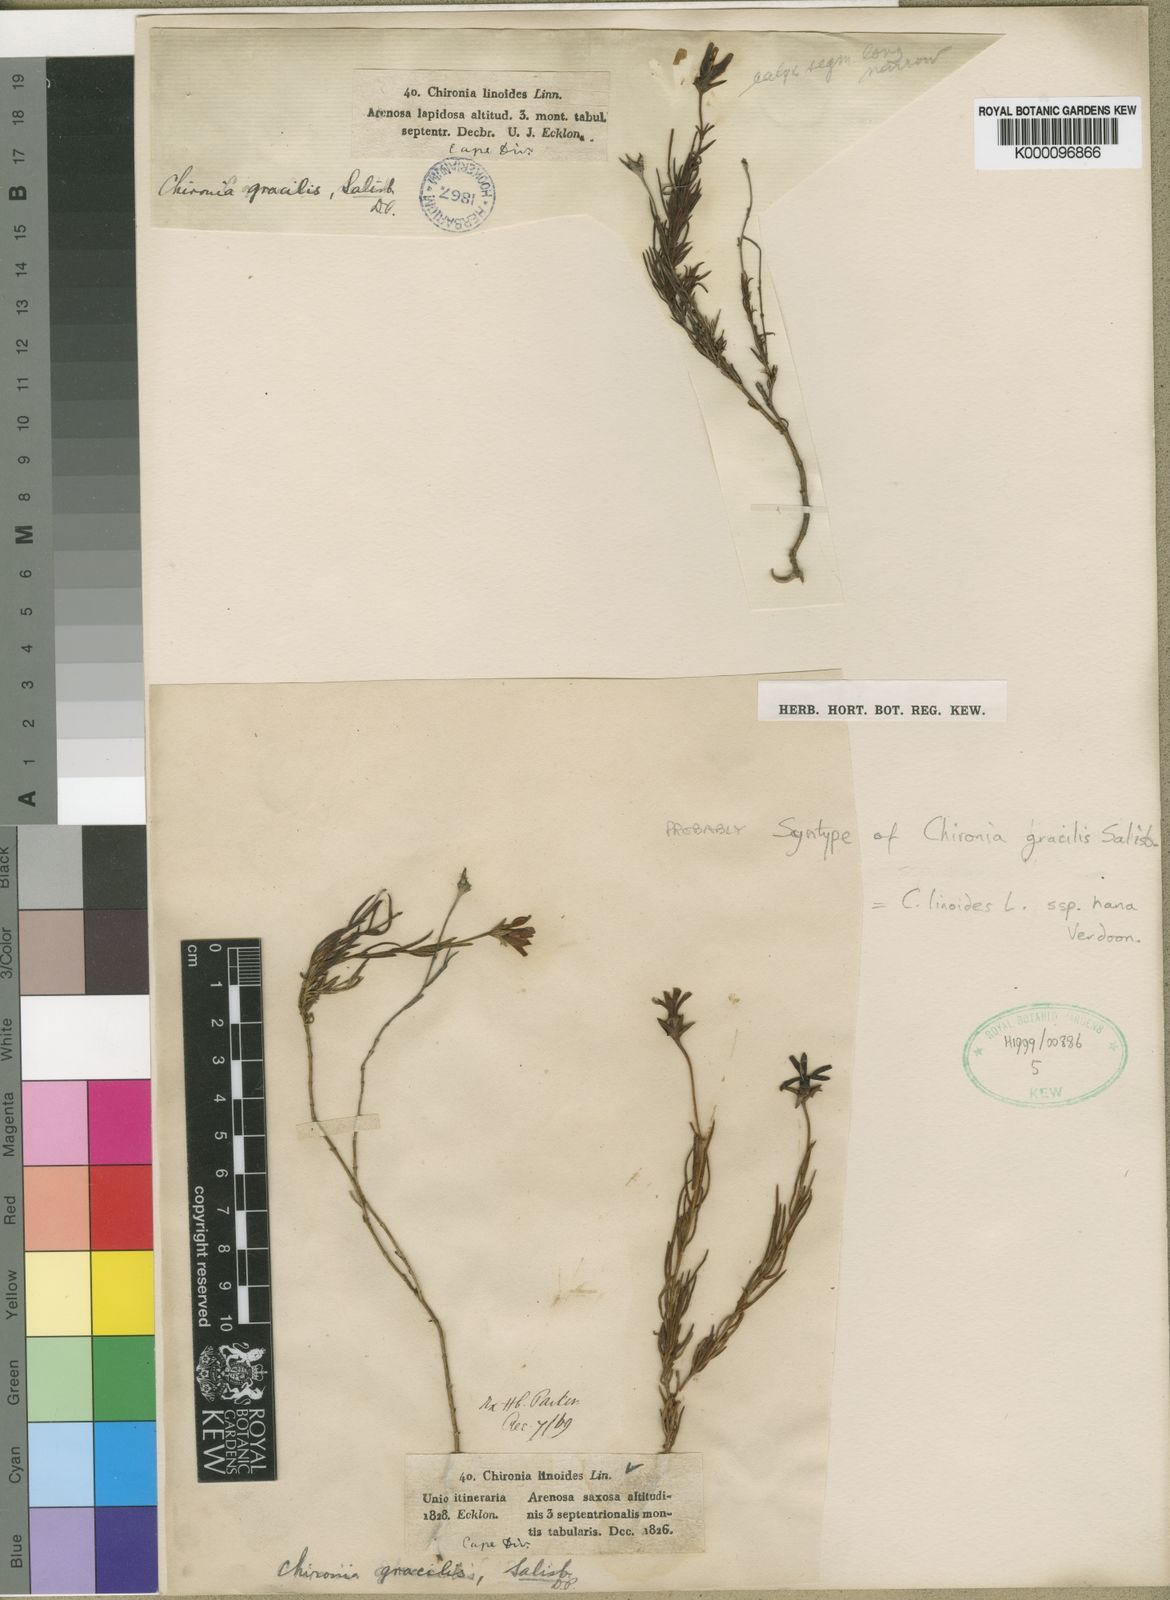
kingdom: Plantae
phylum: Tracheophyta
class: Magnoliopsida
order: Gentianales
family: Gentianaceae
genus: Chironia
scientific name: Chironia linoides
